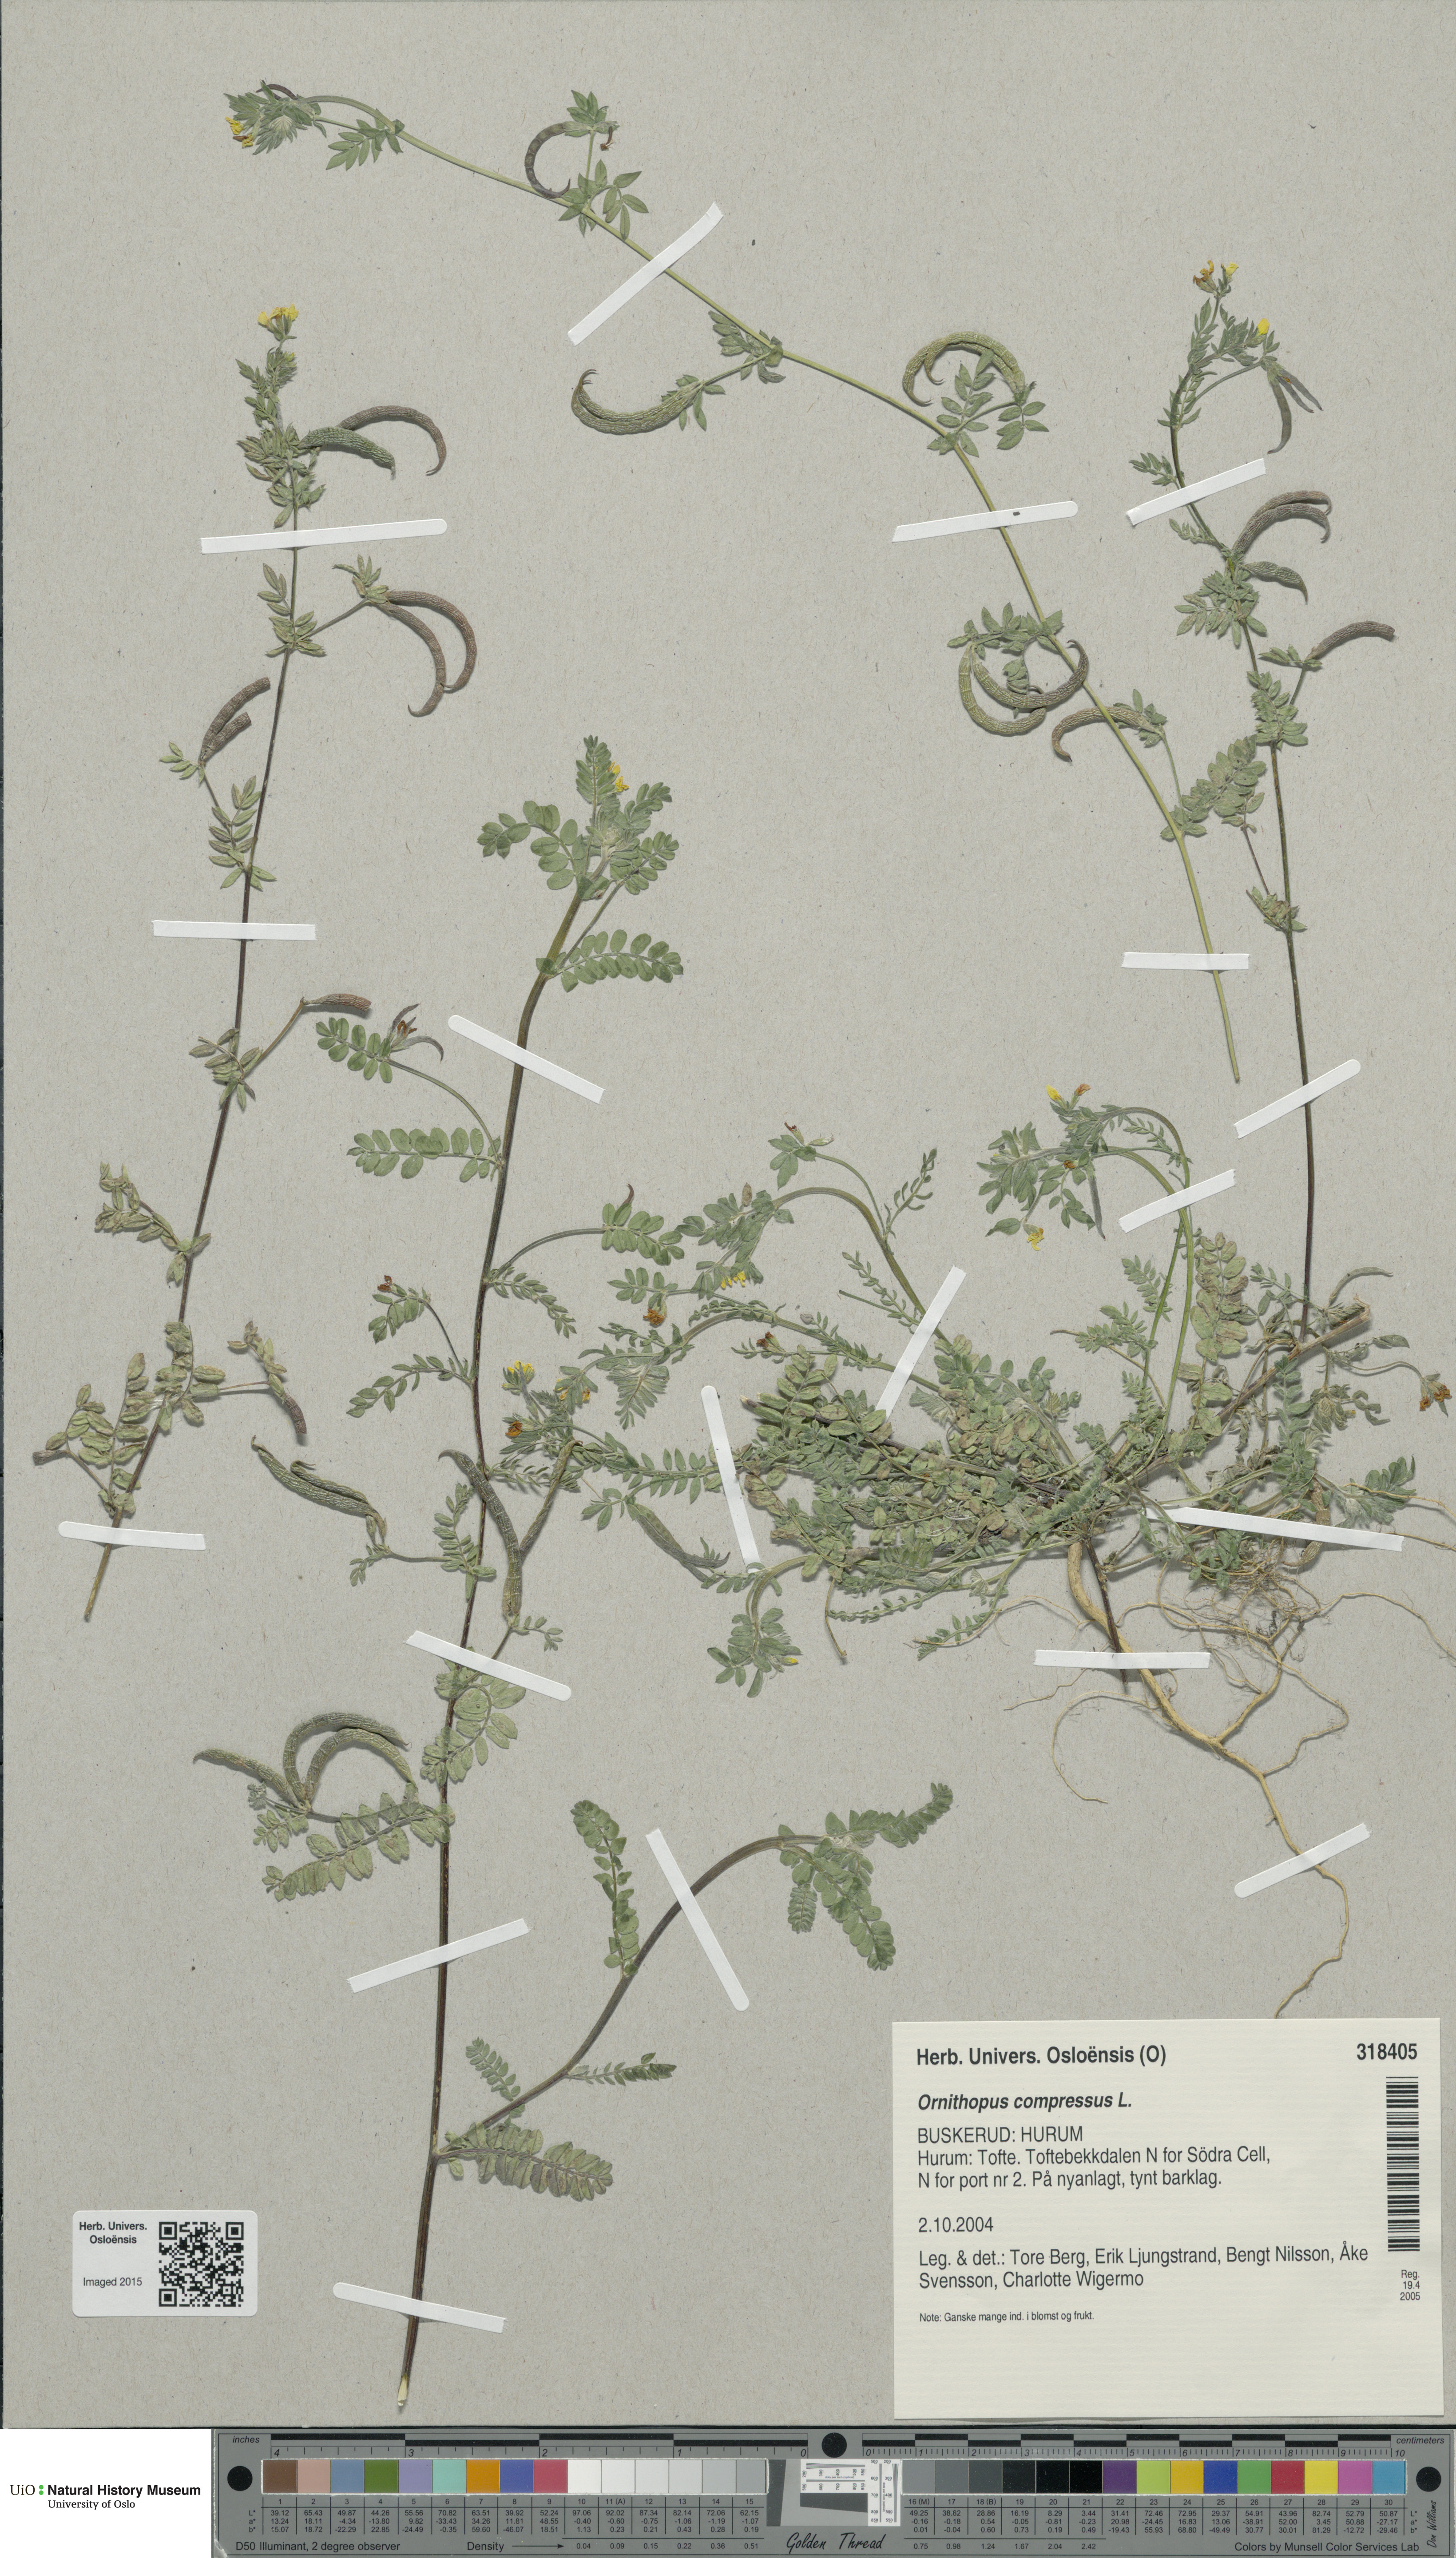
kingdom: Plantae
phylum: Tracheophyta
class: Magnoliopsida
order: Fabales
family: Fabaceae
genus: Ornithopus
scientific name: Ornithopus compressus
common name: Yellow serradella
